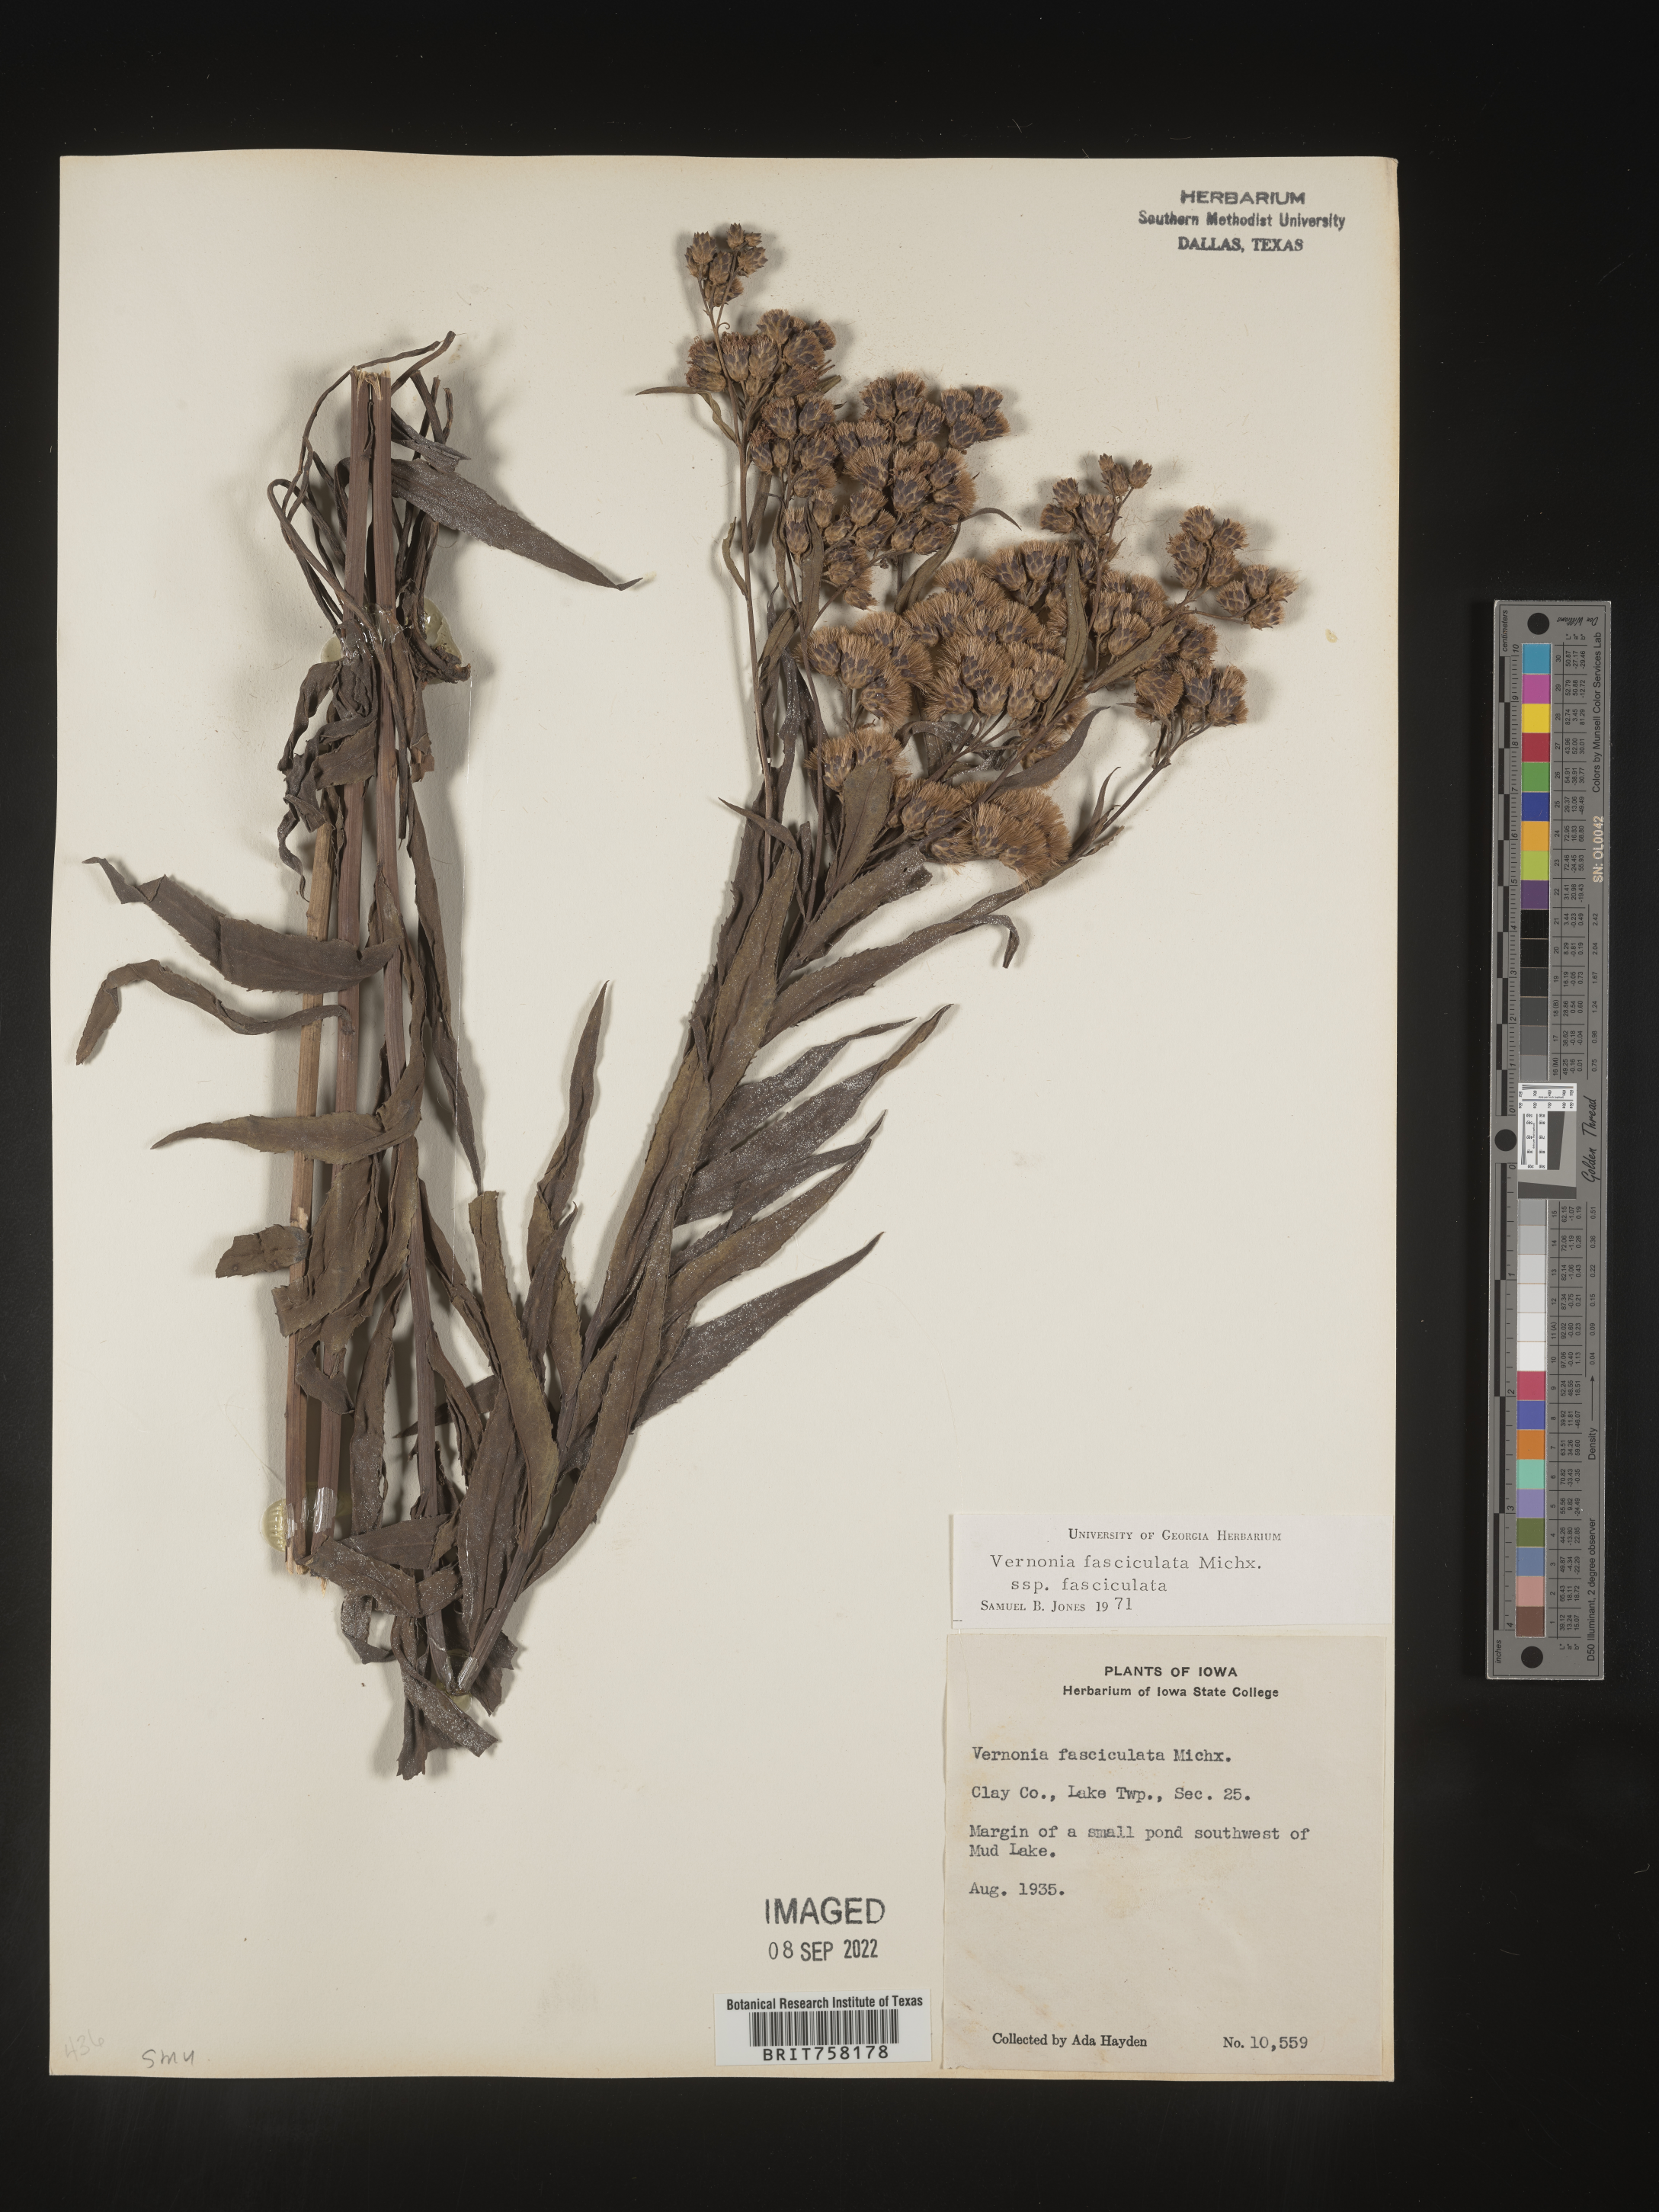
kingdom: Plantae
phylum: Tracheophyta
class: Magnoliopsida
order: Asterales
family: Asteraceae
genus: Vernonia
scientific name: Vernonia fasciculata
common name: Fascicled ironweed
